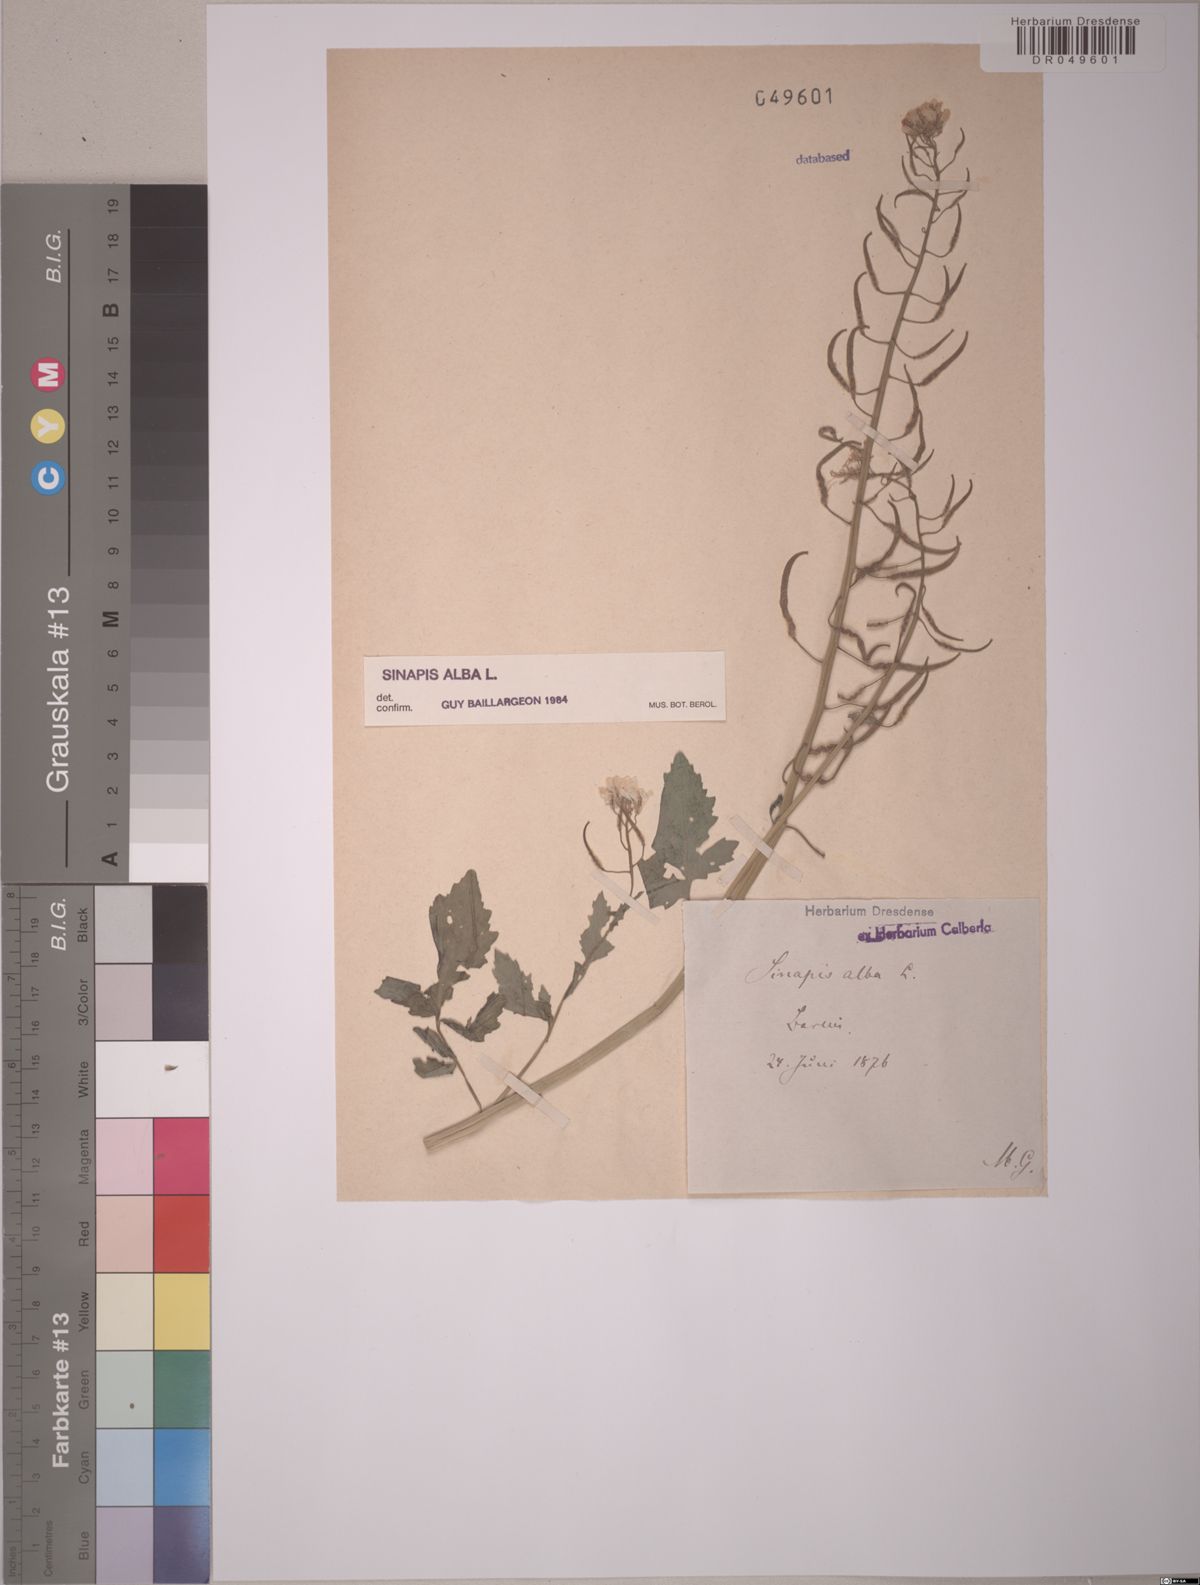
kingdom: Plantae
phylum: Tracheophyta
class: Magnoliopsida
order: Brassicales
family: Brassicaceae
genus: Sinapis
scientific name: Sinapis alba
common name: White mustard
